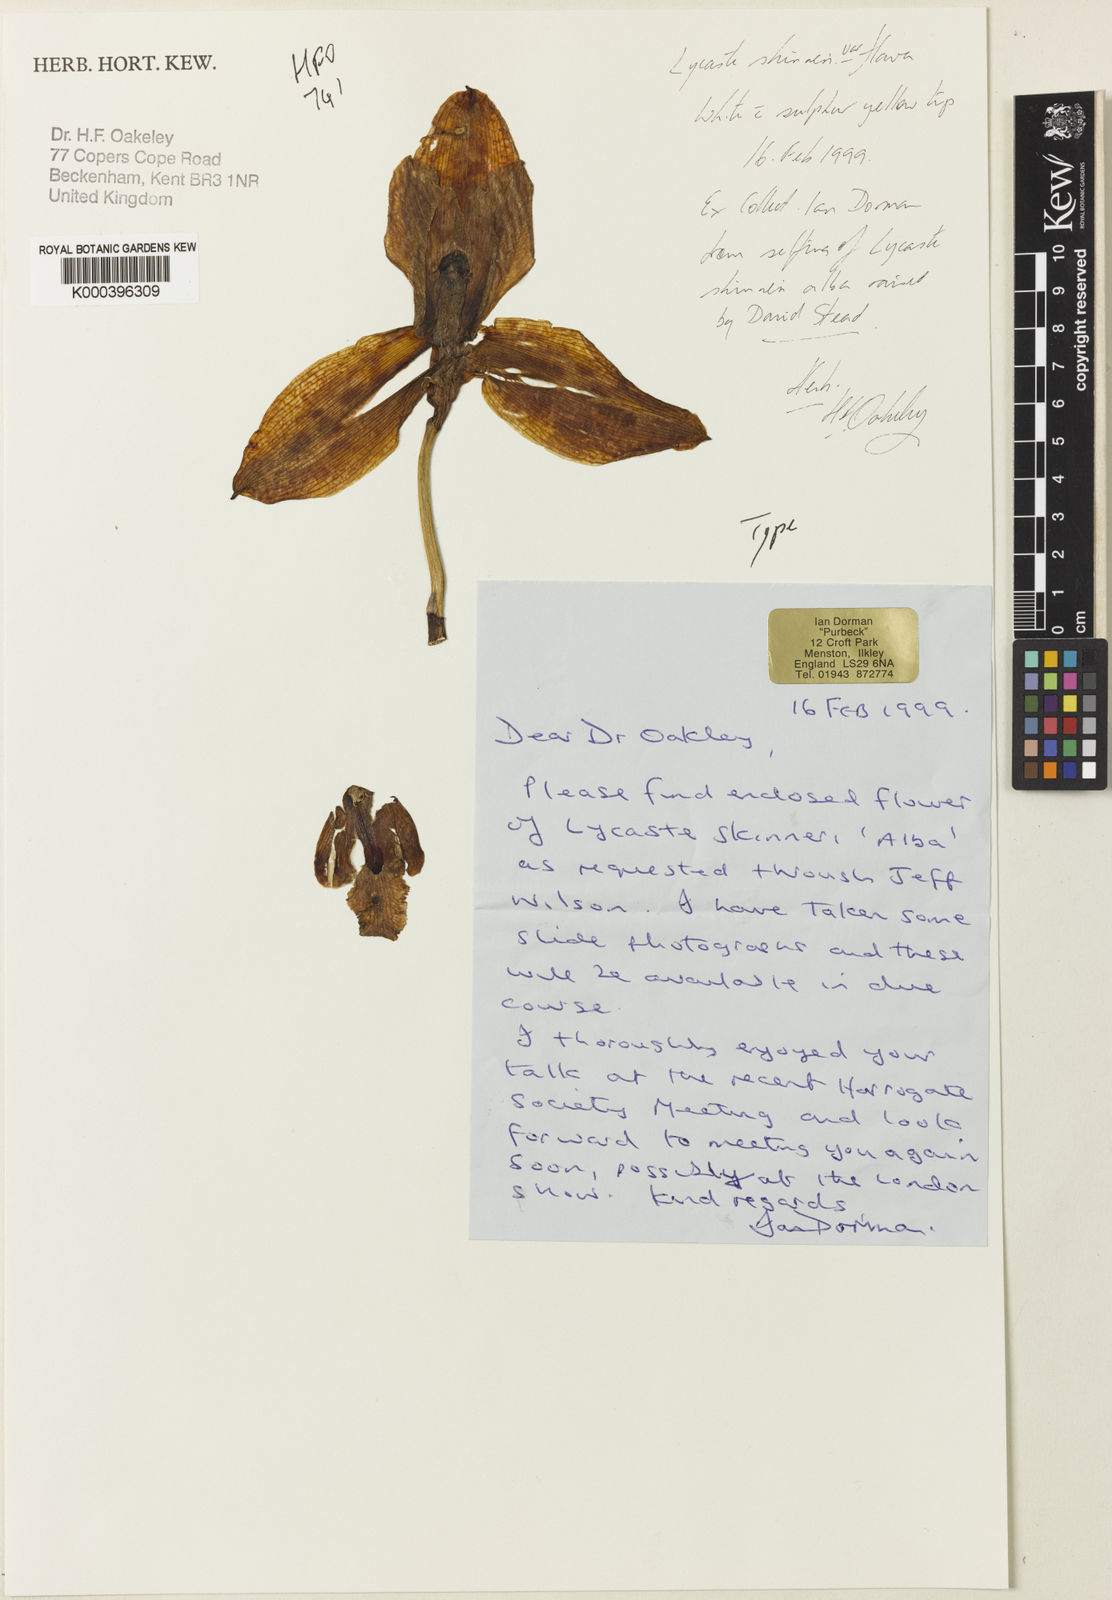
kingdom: Plantae
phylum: Tracheophyta
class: Liliopsida
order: Asparagales
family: Orchidaceae
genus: Lycaste
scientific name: Lycaste virginalis
